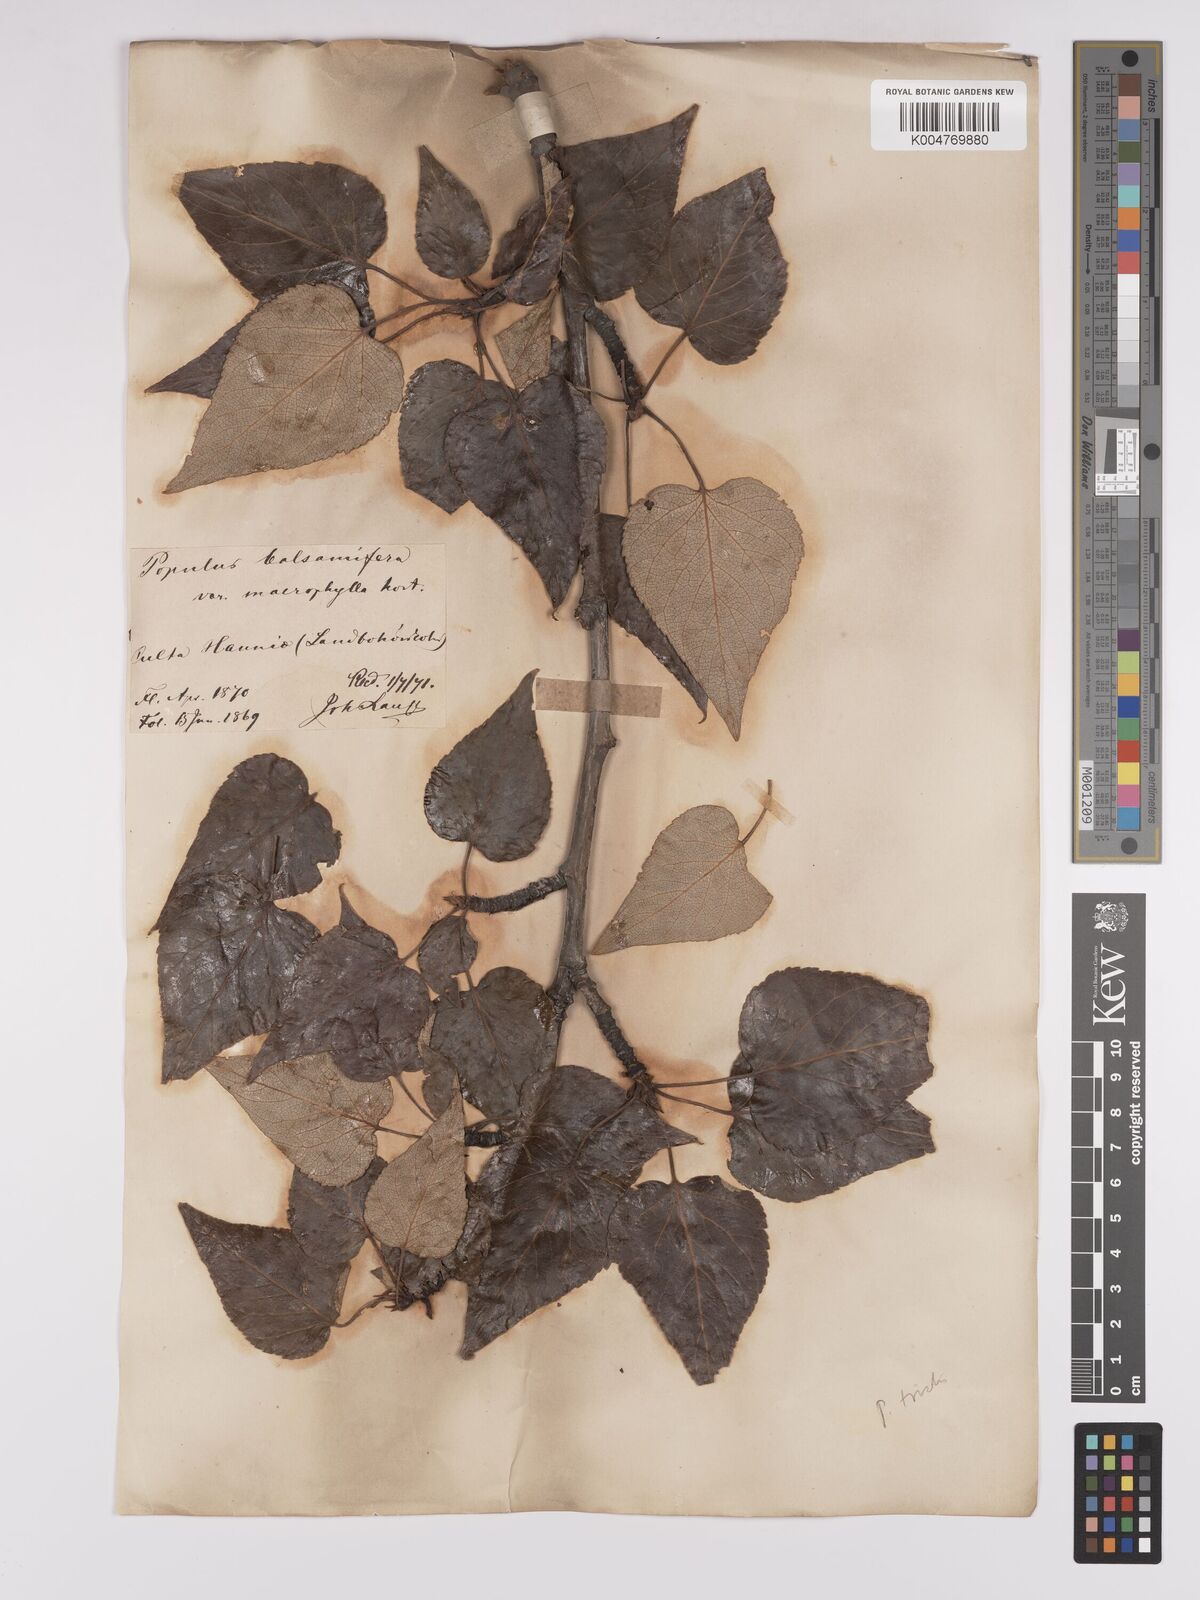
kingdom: Plantae
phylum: Tracheophyta
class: Magnoliopsida
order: Malpighiales
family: Salicaceae
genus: Populus
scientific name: Populus balsamifera
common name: Balsam poplar
